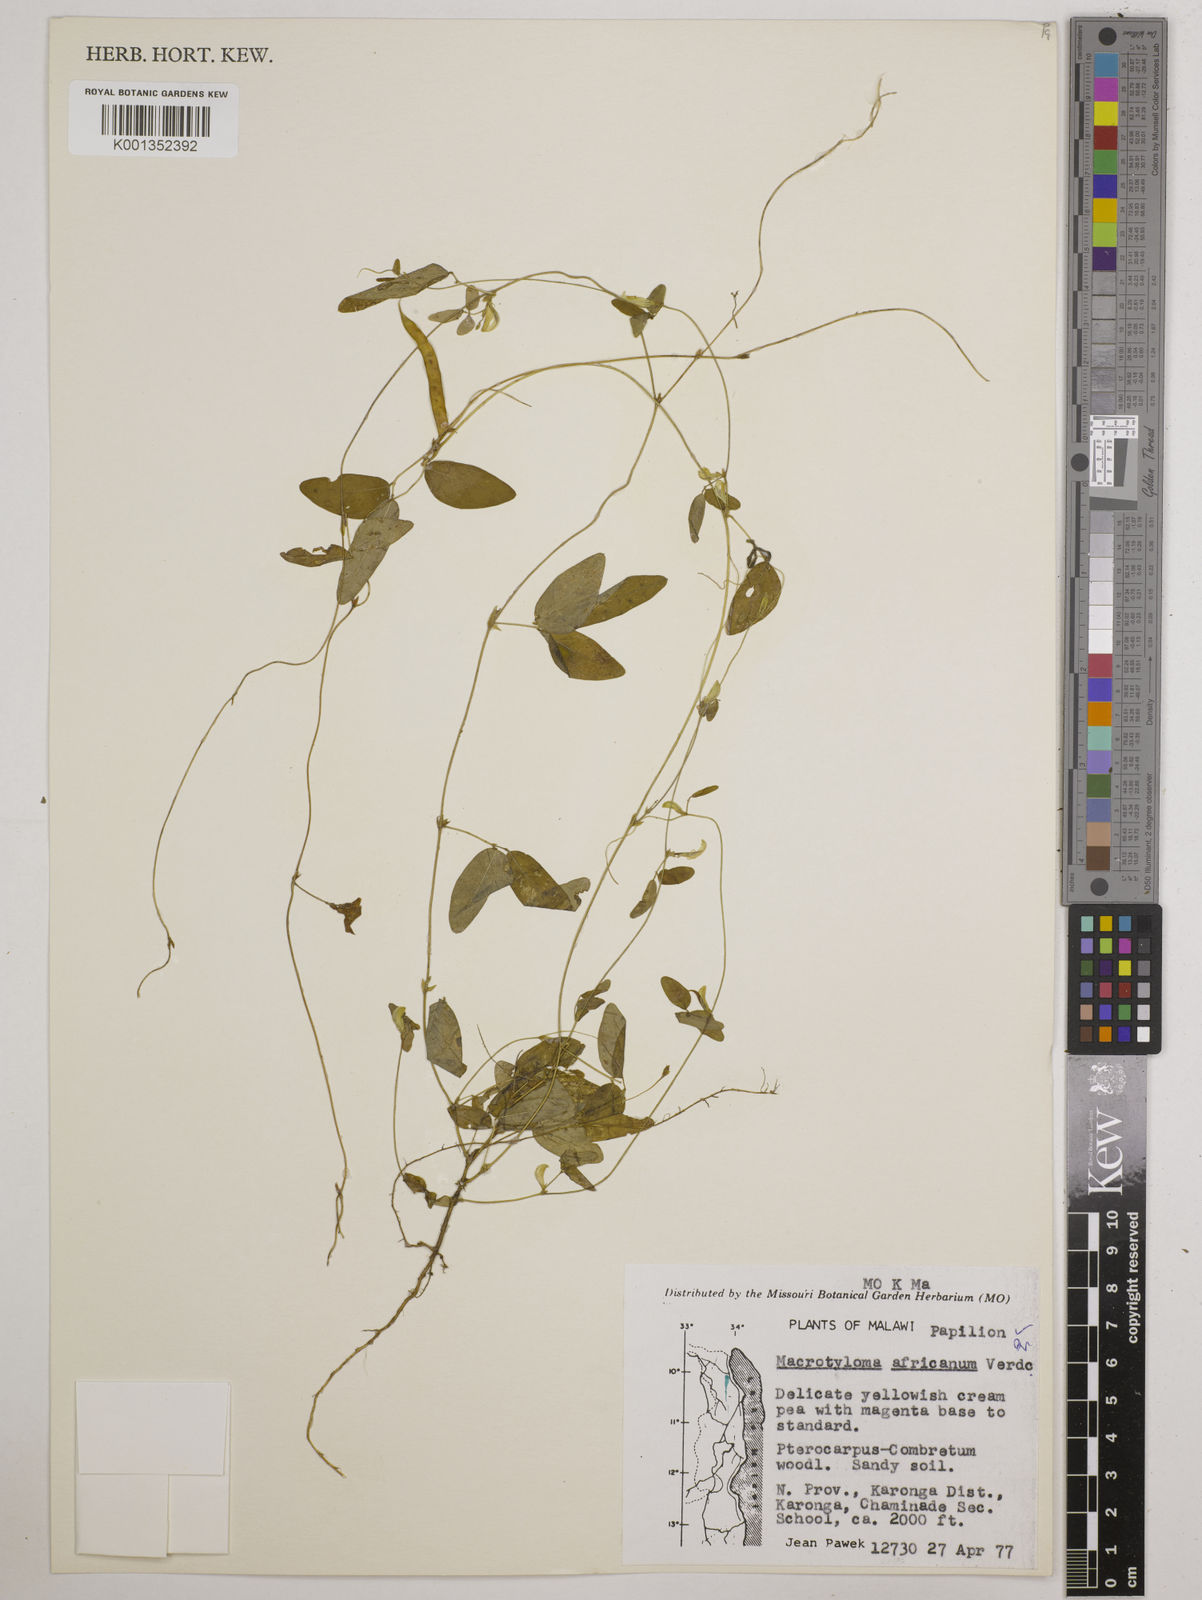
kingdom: Plantae
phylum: Tracheophyta
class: Magnoliopsida
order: Fabales
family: Fabaceae
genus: Macrotyloma
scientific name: Macrotyloma africanum
